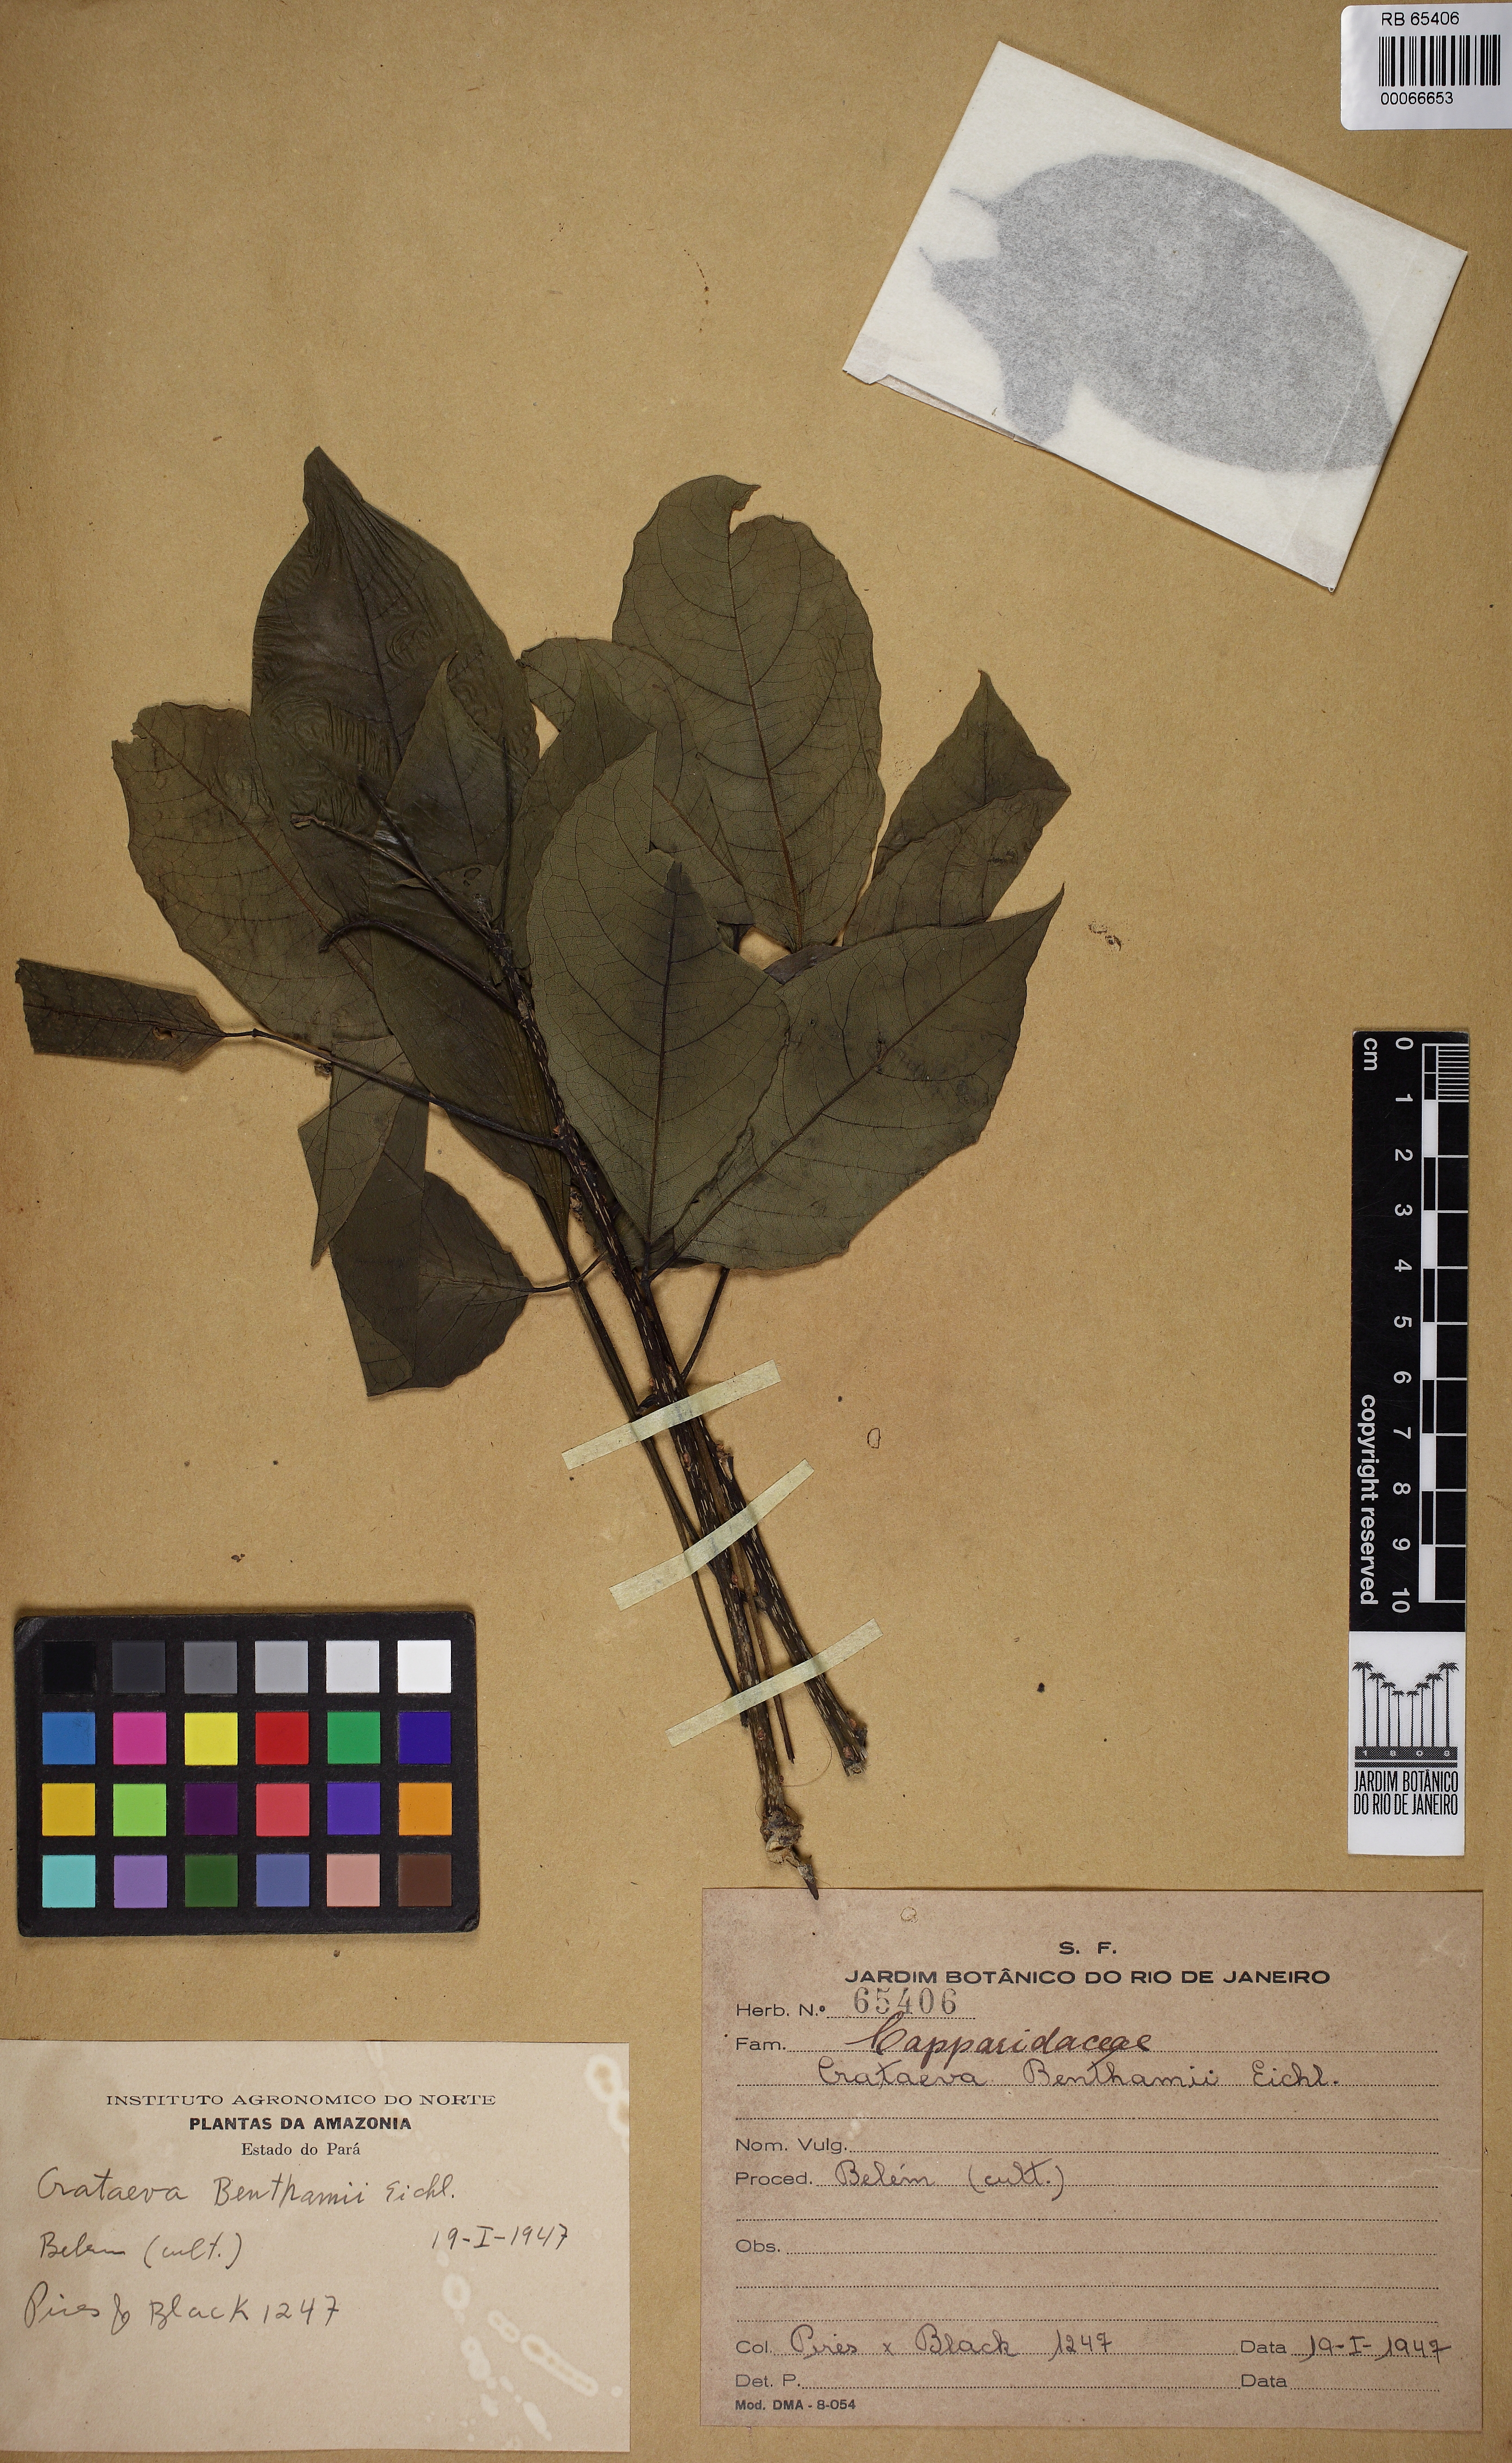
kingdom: Plantae
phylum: Tracheophyta
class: Magnoliopsida
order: Brassicales
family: Capparaceae
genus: Crateva
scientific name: Crateva tapia
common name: Garlic-pear
